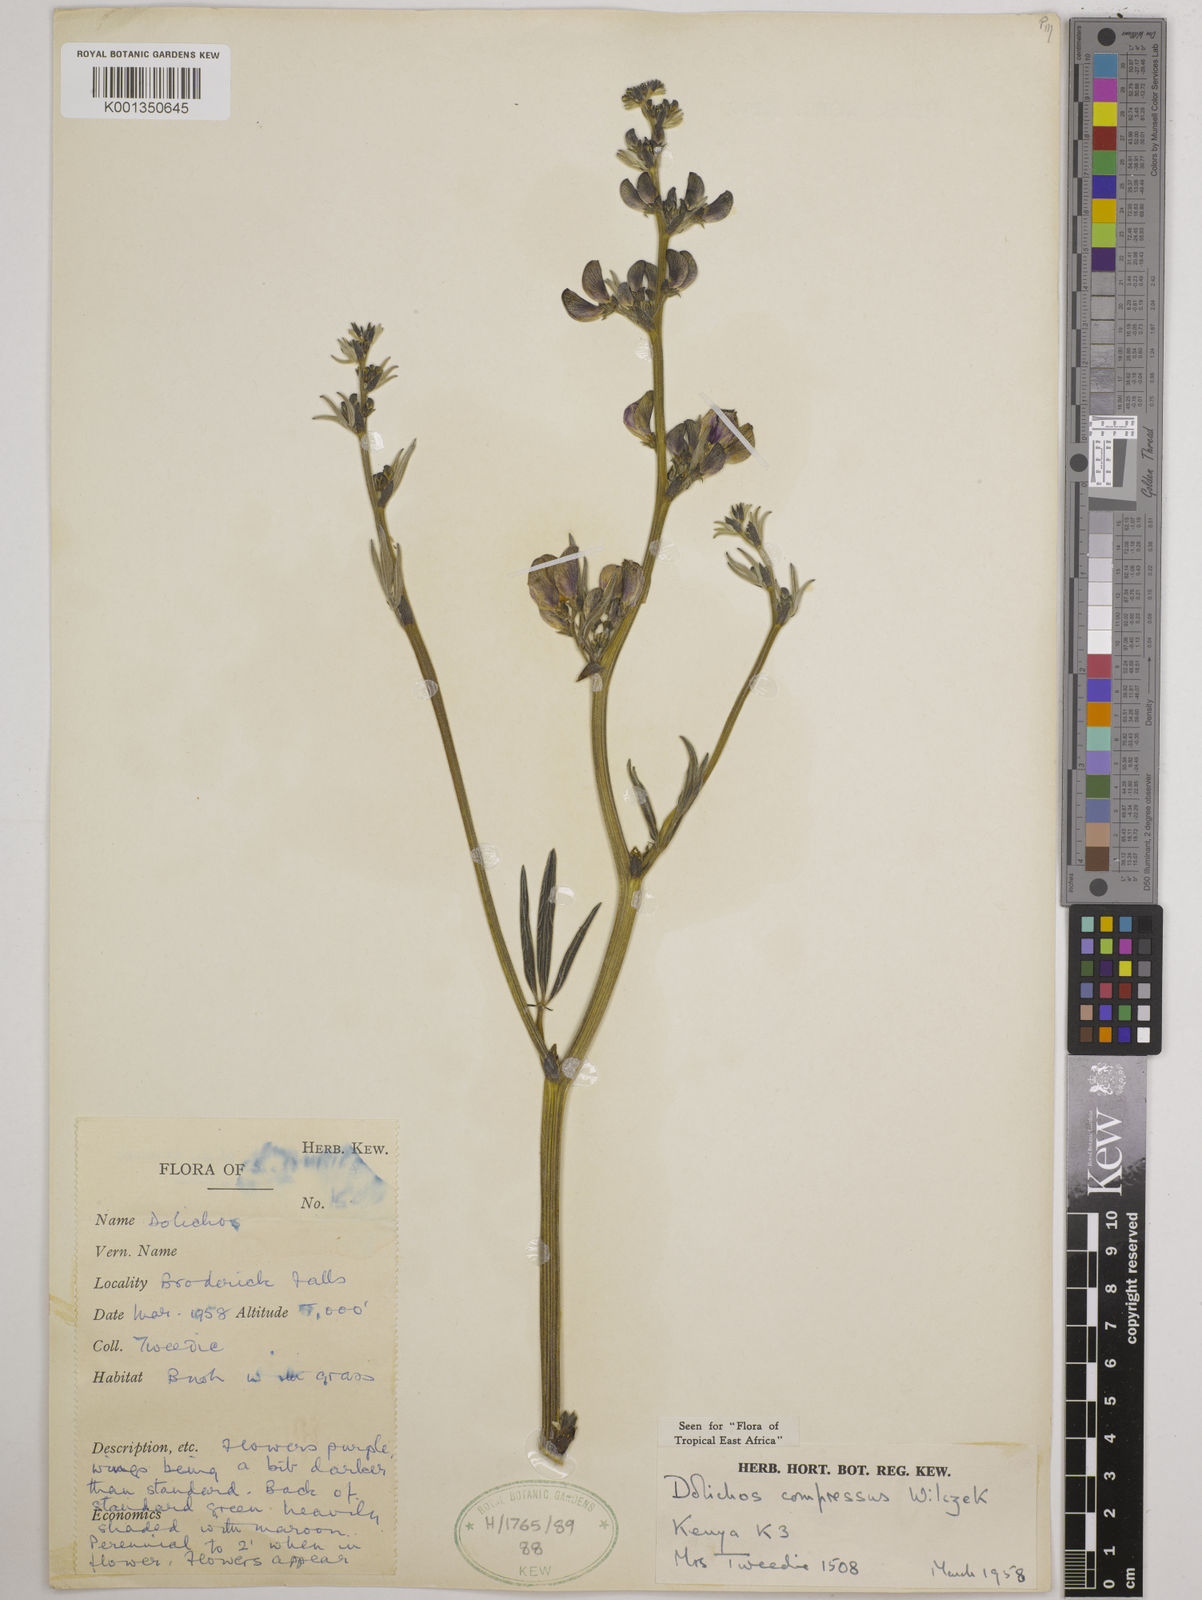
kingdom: Plantae
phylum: Tracheophyta
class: Magnoliopsida
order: Fabales
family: Fabaceae
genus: Dolichos
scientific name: Dolichos compressus
